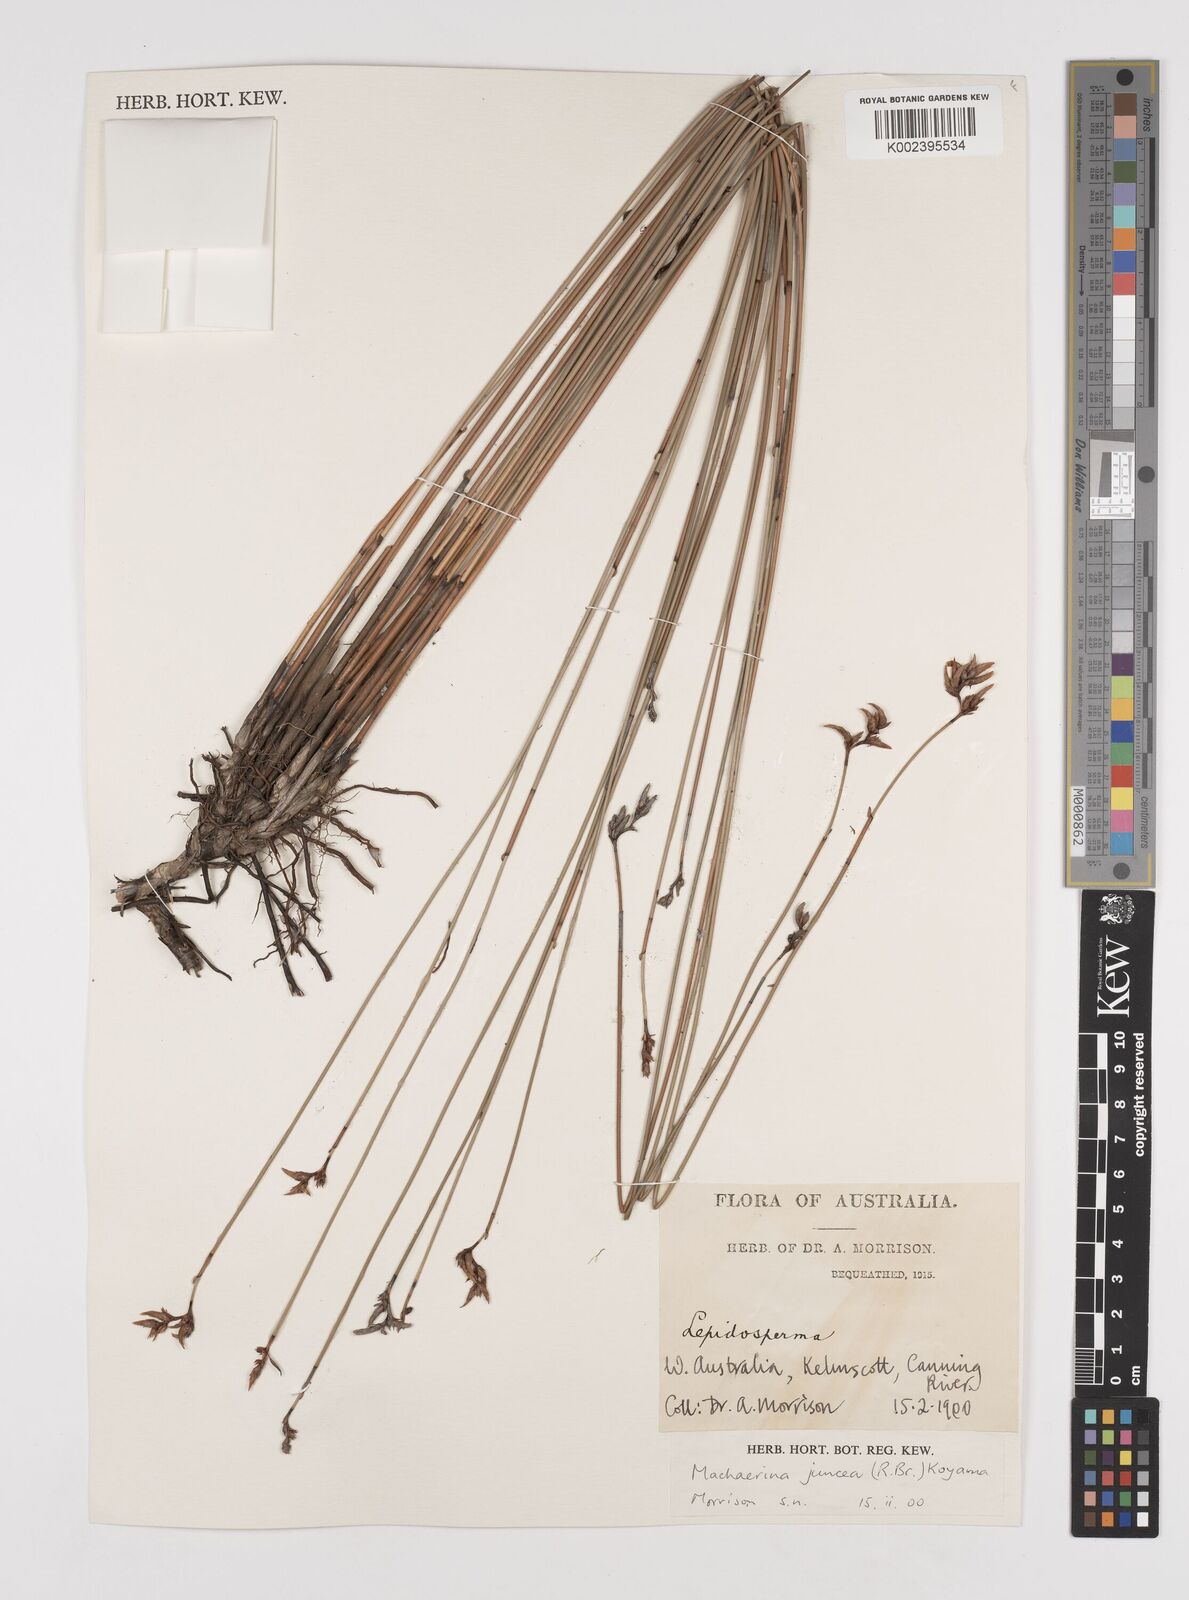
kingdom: Plantae
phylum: Tracheophyta
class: Liliopsida
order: Poales
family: Cyperaceae
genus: Machaerina
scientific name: Machaerina juncea
